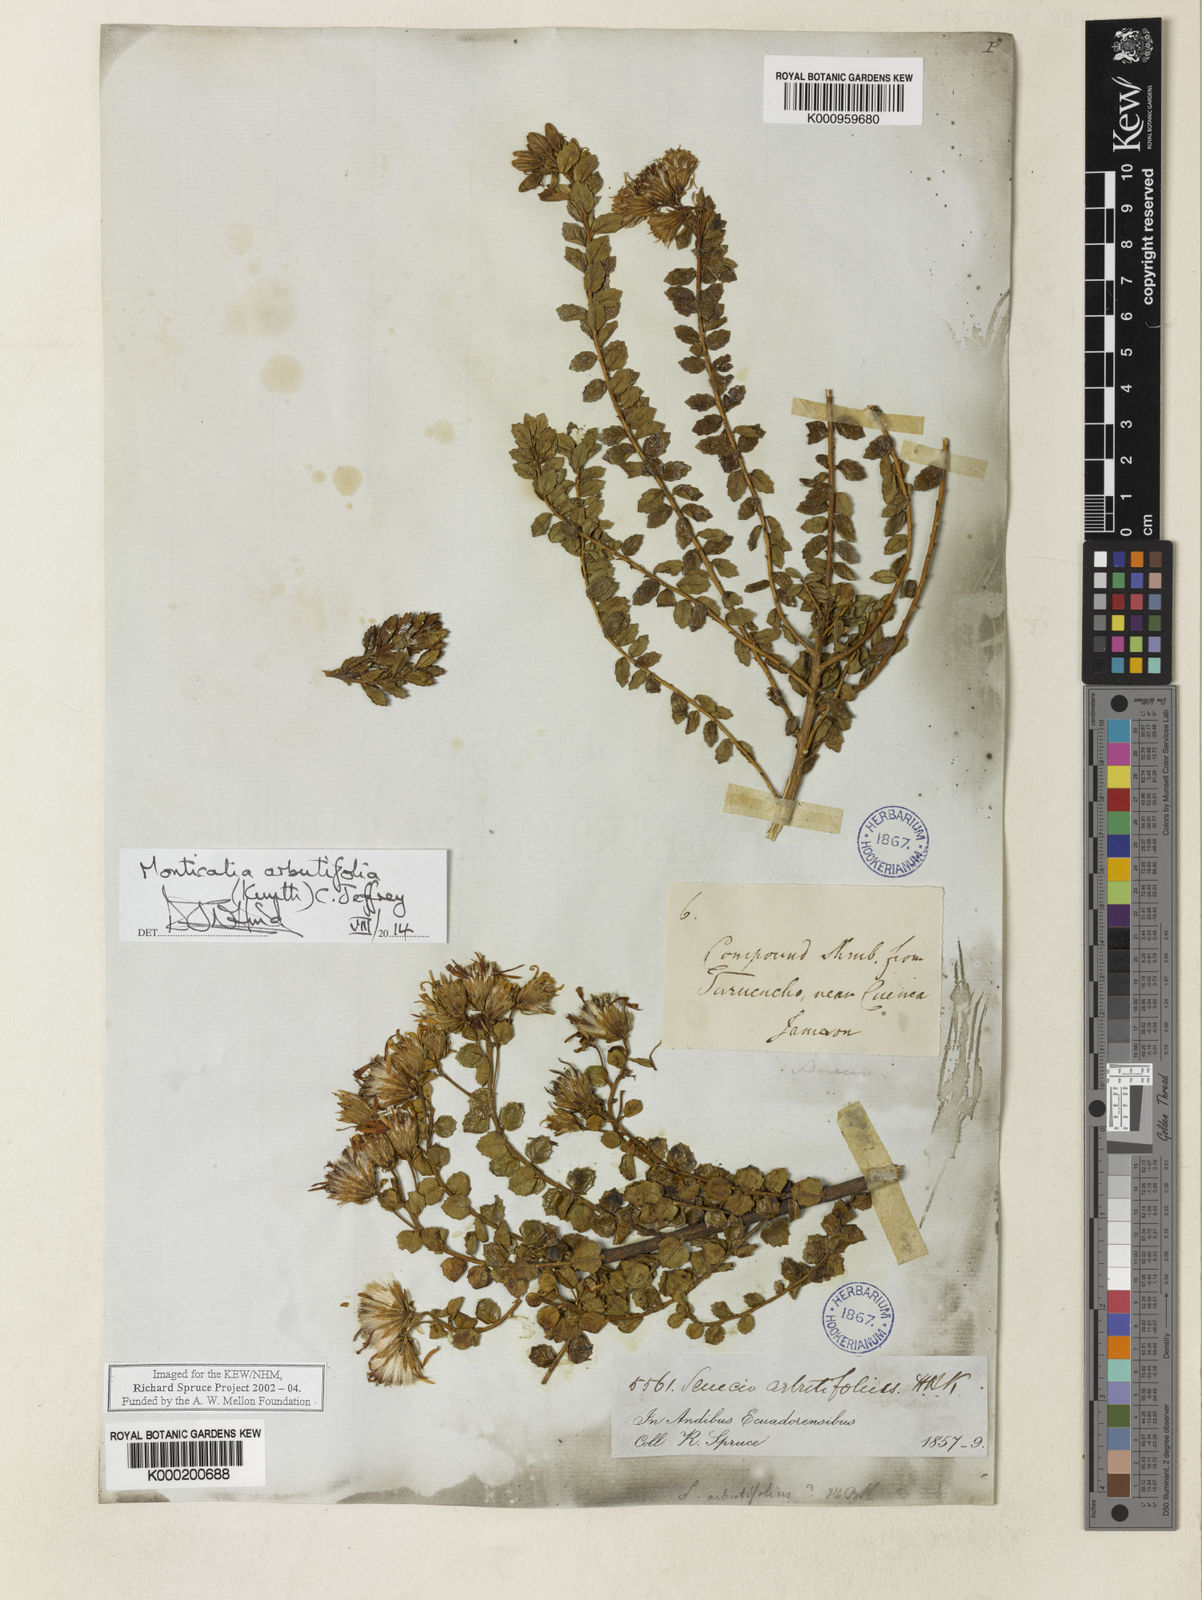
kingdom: Plantae
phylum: Tracheophyta
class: Magnoliopsida
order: Asterales
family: Asteraceae
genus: Monticalia
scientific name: Monticalia arbutifolia
